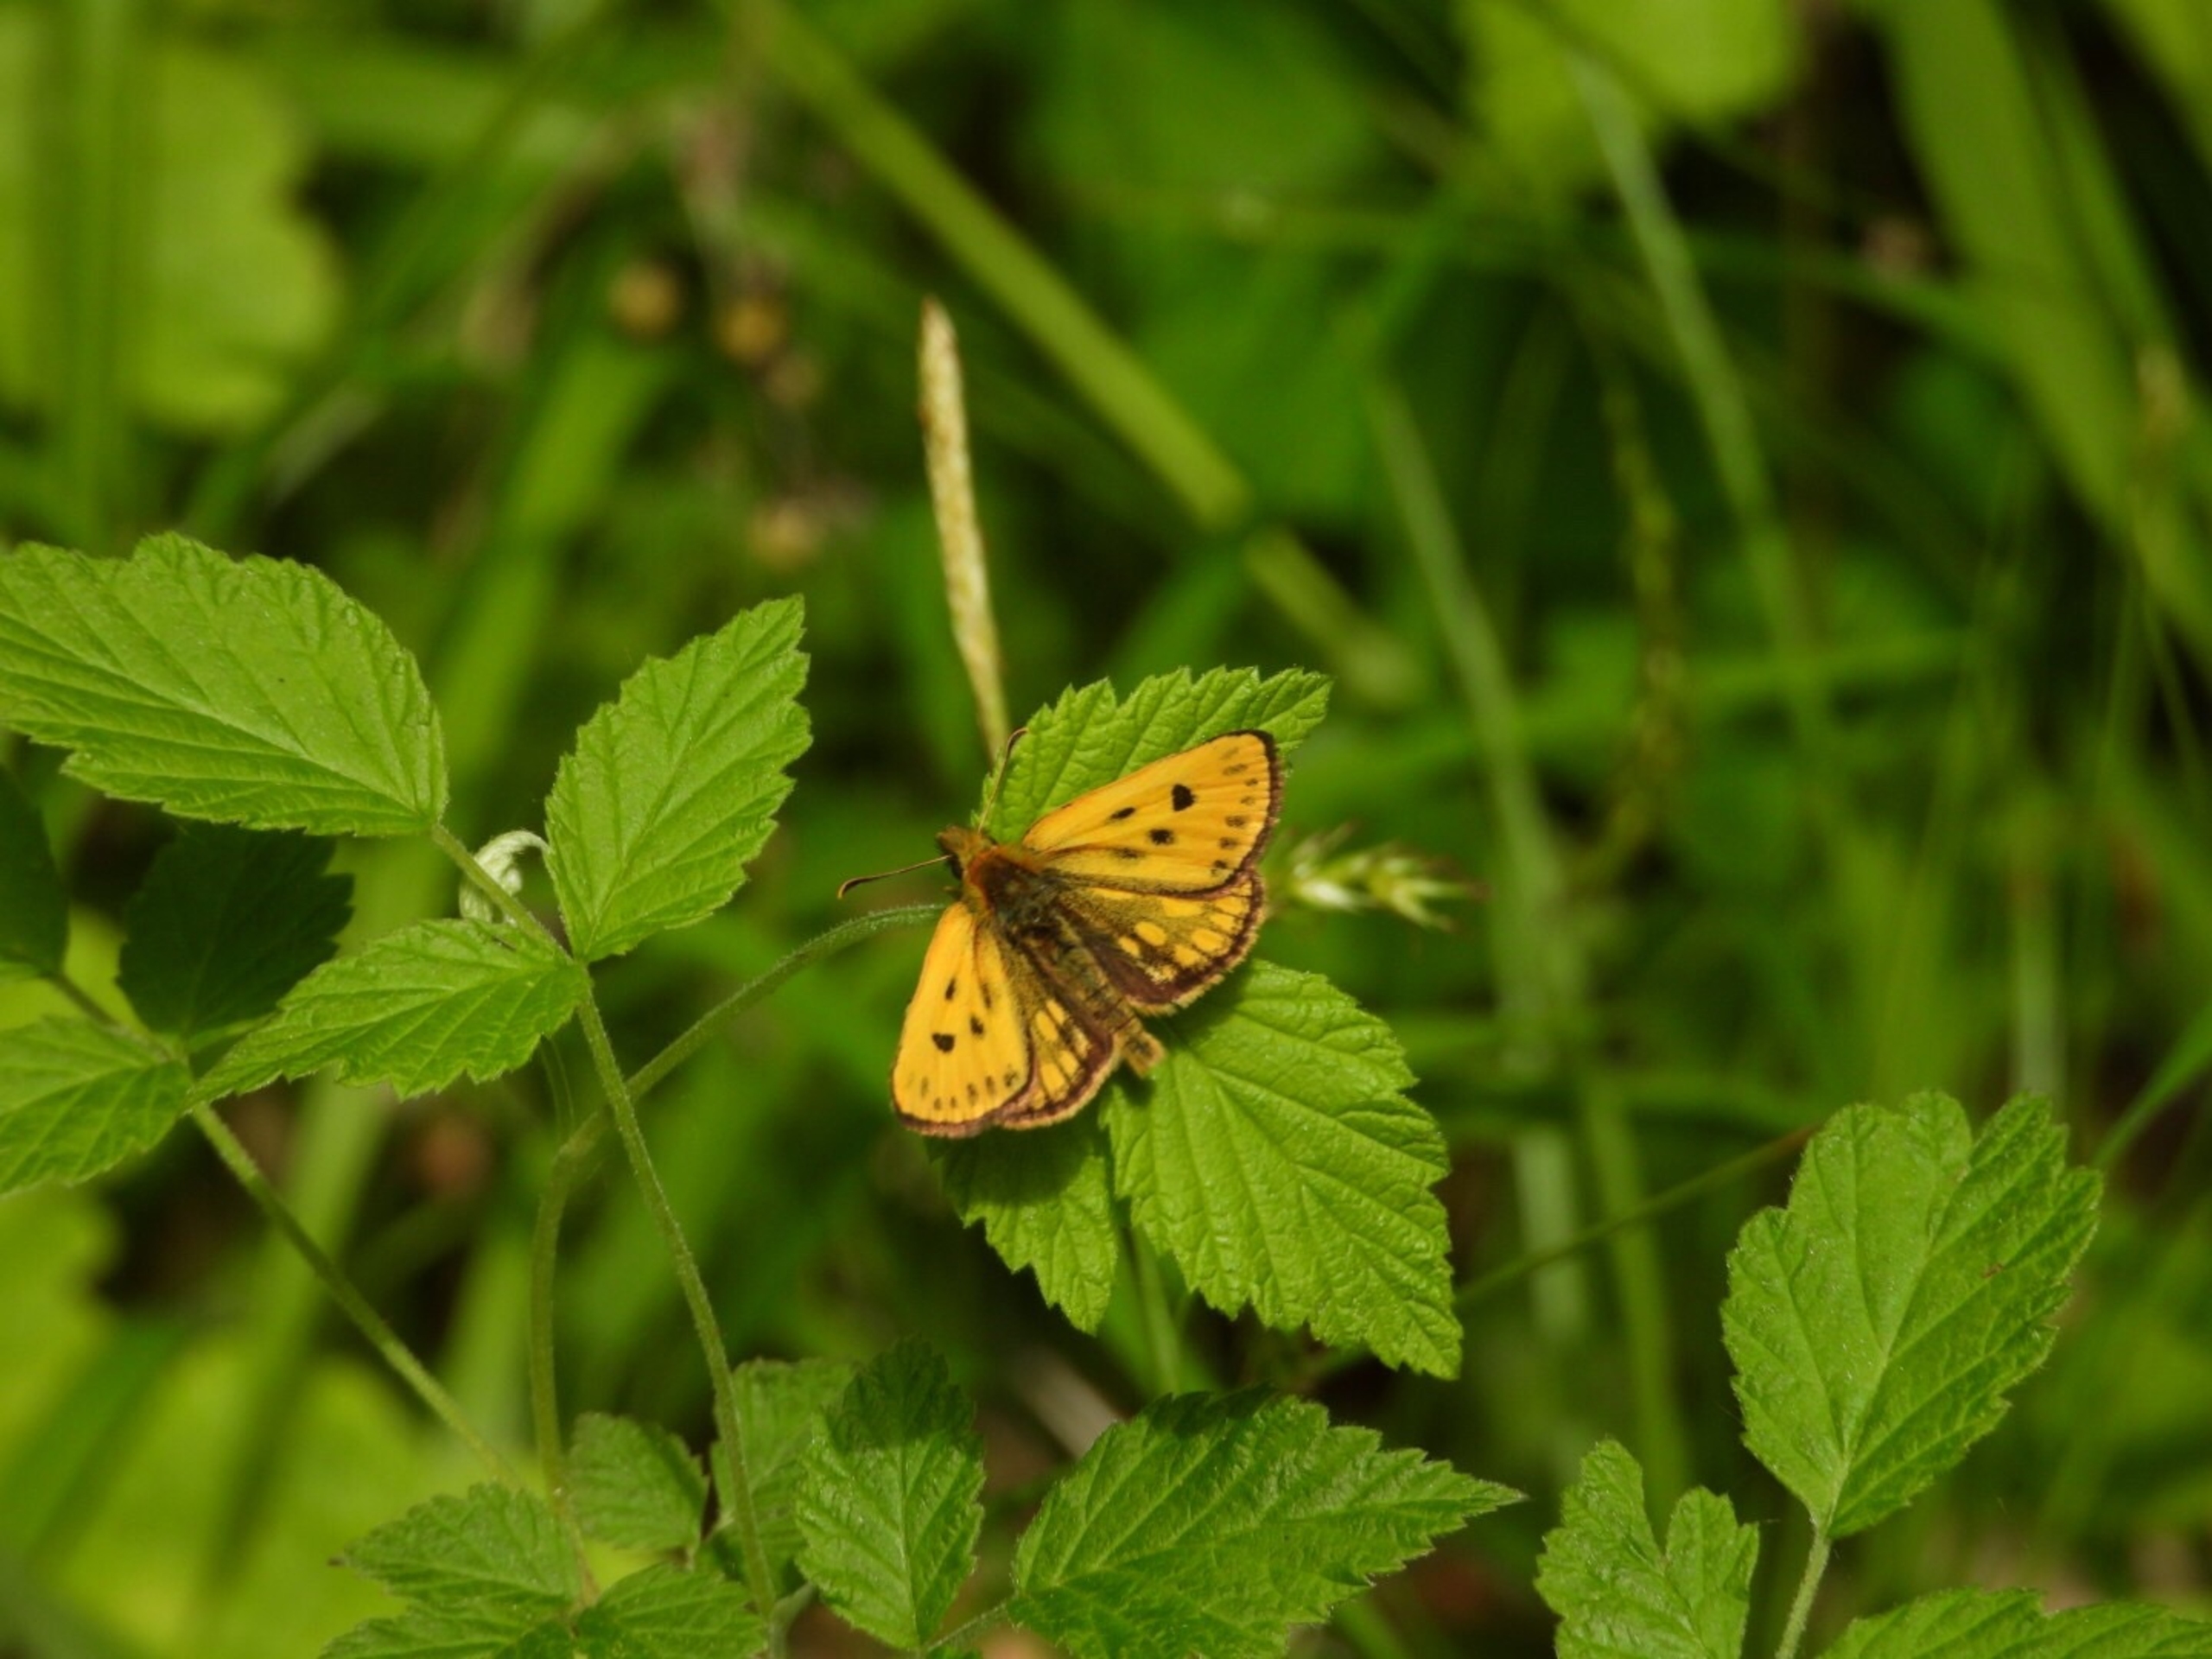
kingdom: Animalia
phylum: Arthropoda
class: Insecta
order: Lepidoptera
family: Hesperiidae
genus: Carterocephalus
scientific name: Carterocephalus silvicola
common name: Sortplettet bredpande
